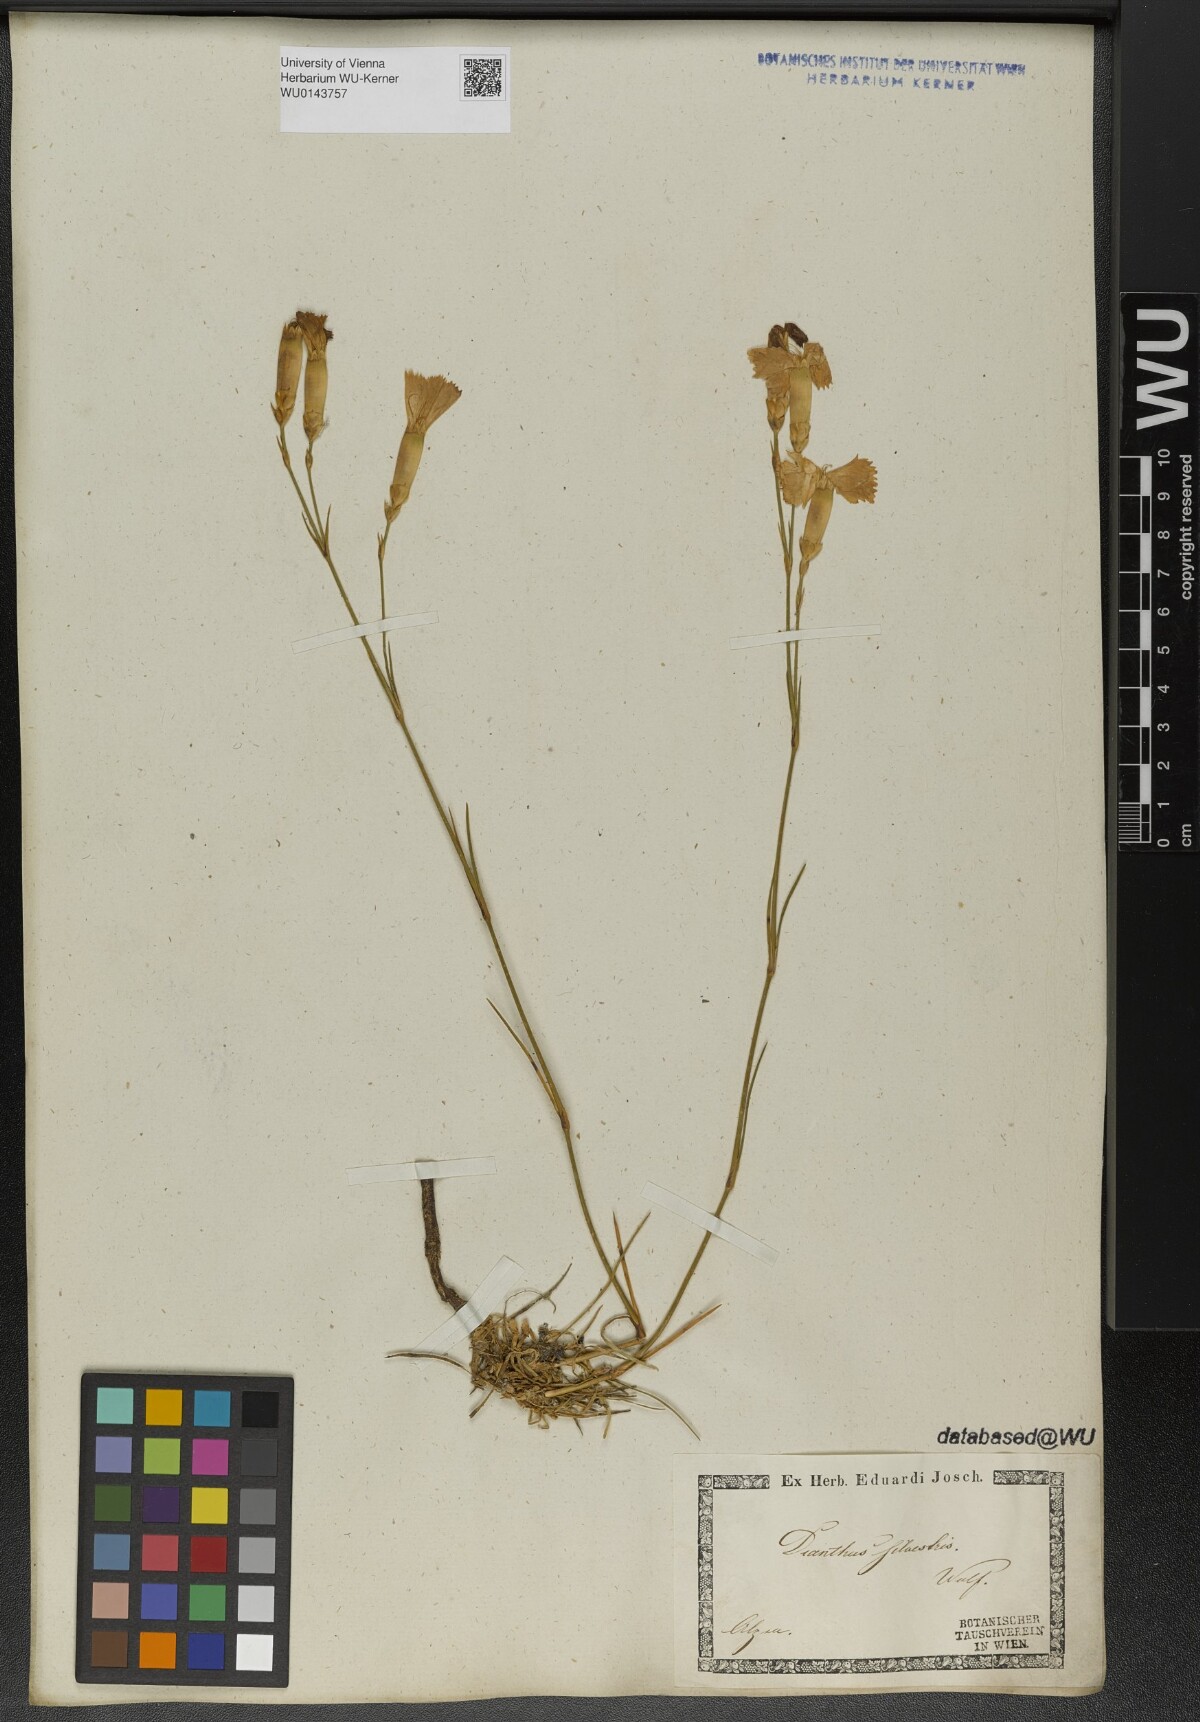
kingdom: Plantae
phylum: Tracheophyta
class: Magnoliopsida
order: Caryophyllales
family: Caryophyllaceae
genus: Dianthus
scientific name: Dianthus sylvestris
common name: Wood pink
